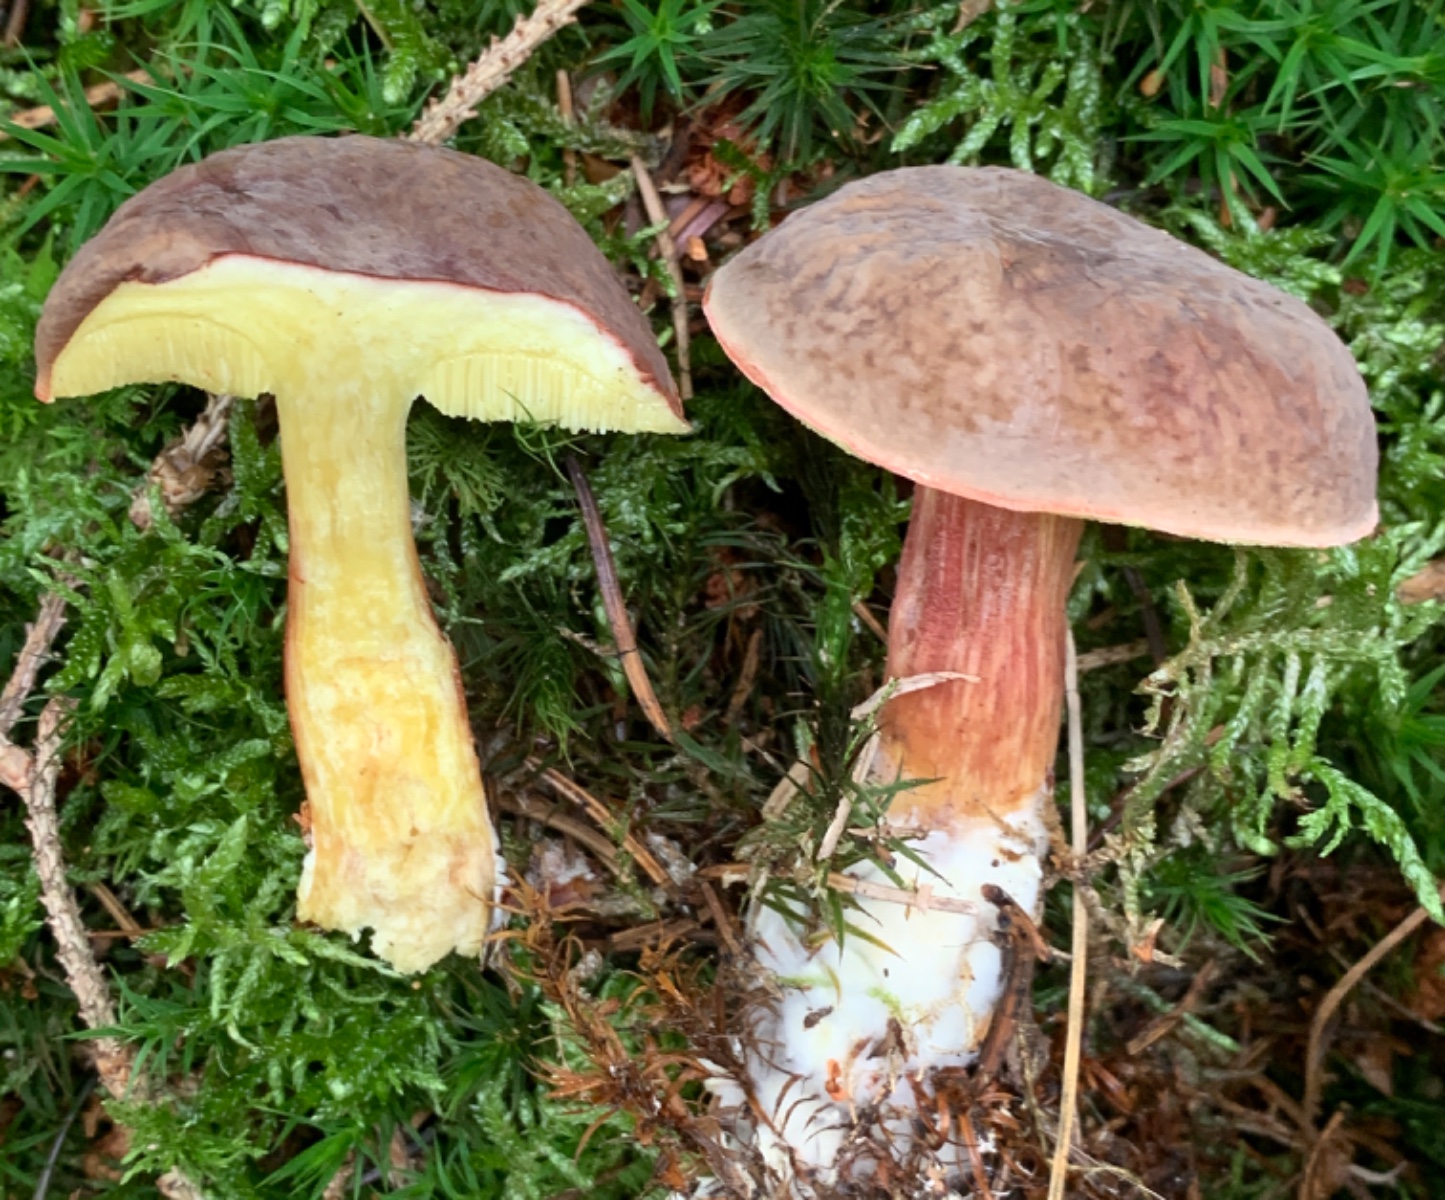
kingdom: Fungi
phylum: Basidiomycota
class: Agaricomycetes
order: Boletales
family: Boletaceae
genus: Xerocomellus
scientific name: Xerocomellus pruinatus
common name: dugget rørhat
